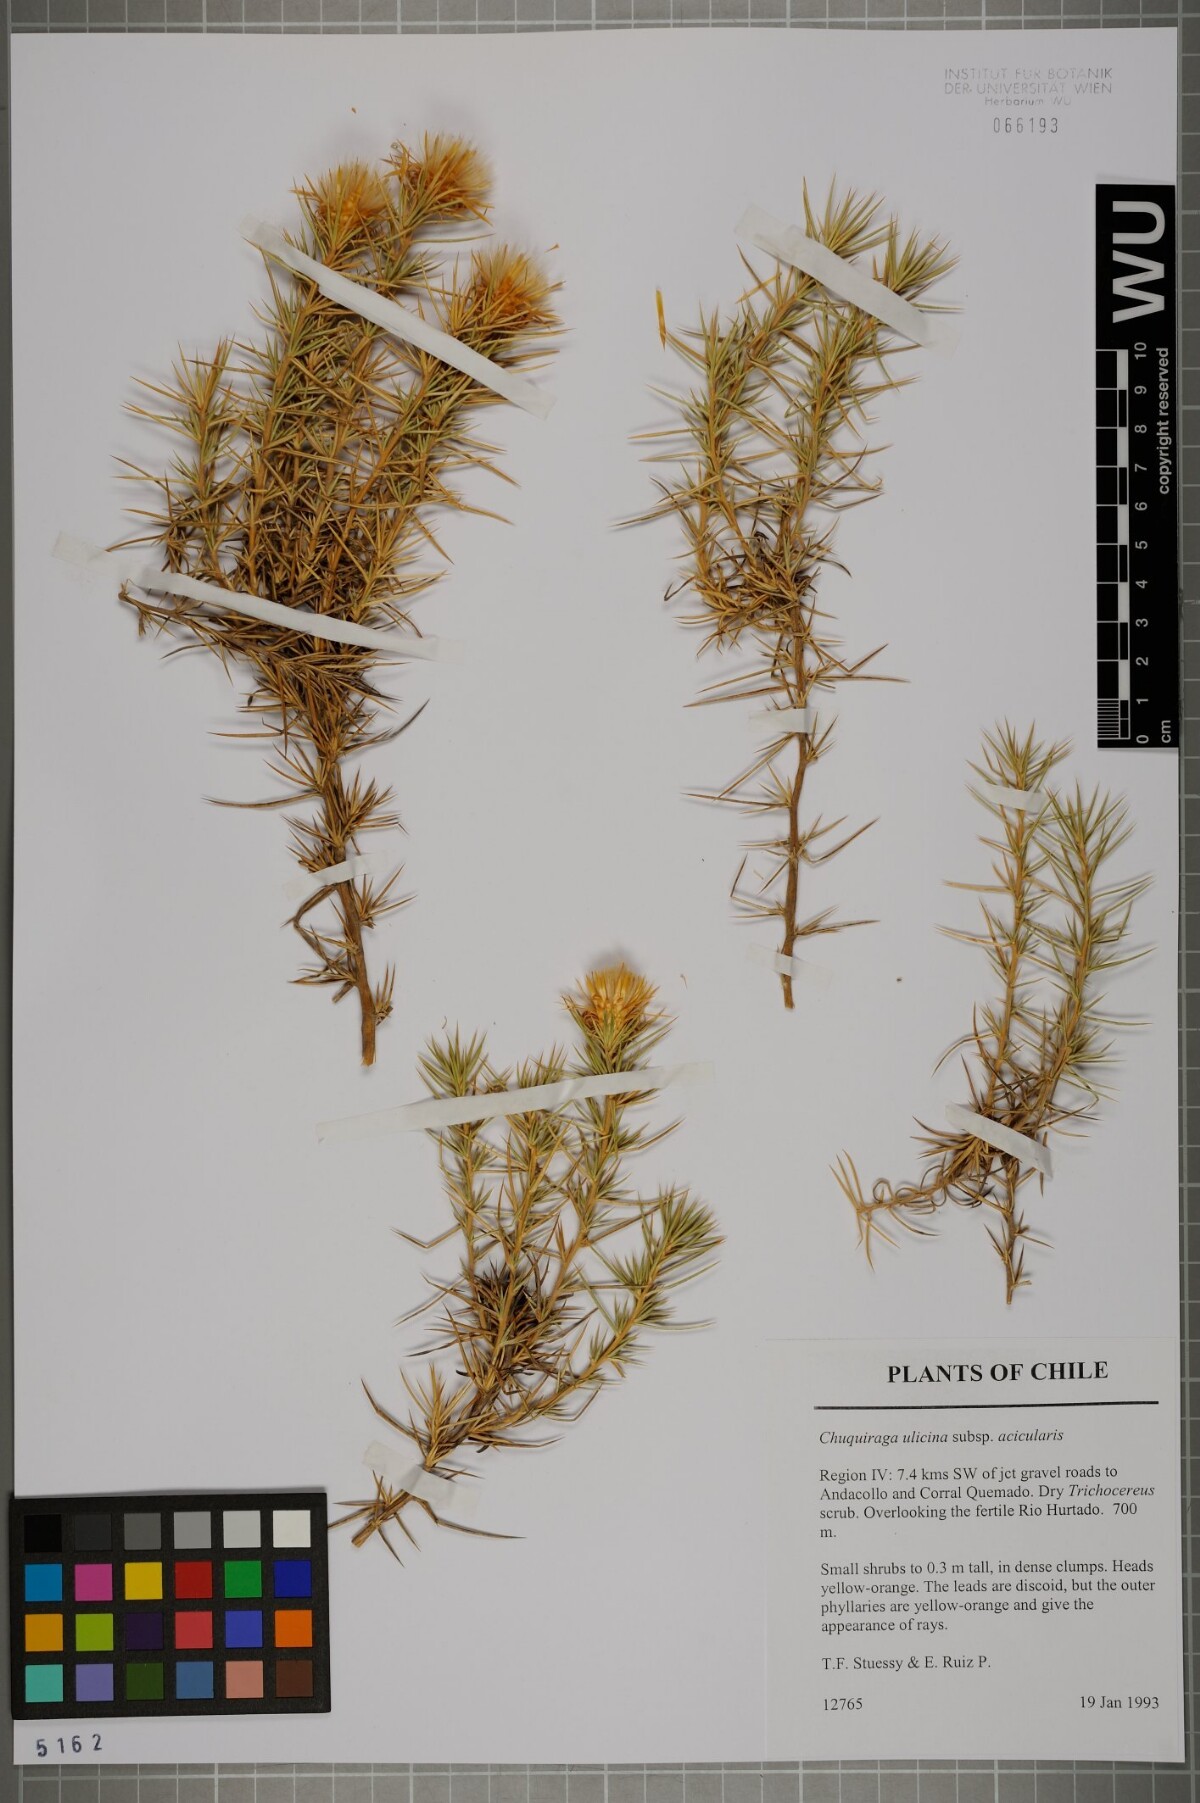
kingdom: Plantae
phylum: Tracheophyta
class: Magnoliopsida
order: Asterales
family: Asteraceae
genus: Chuquiraga
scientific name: Chuquiraga ulicina
